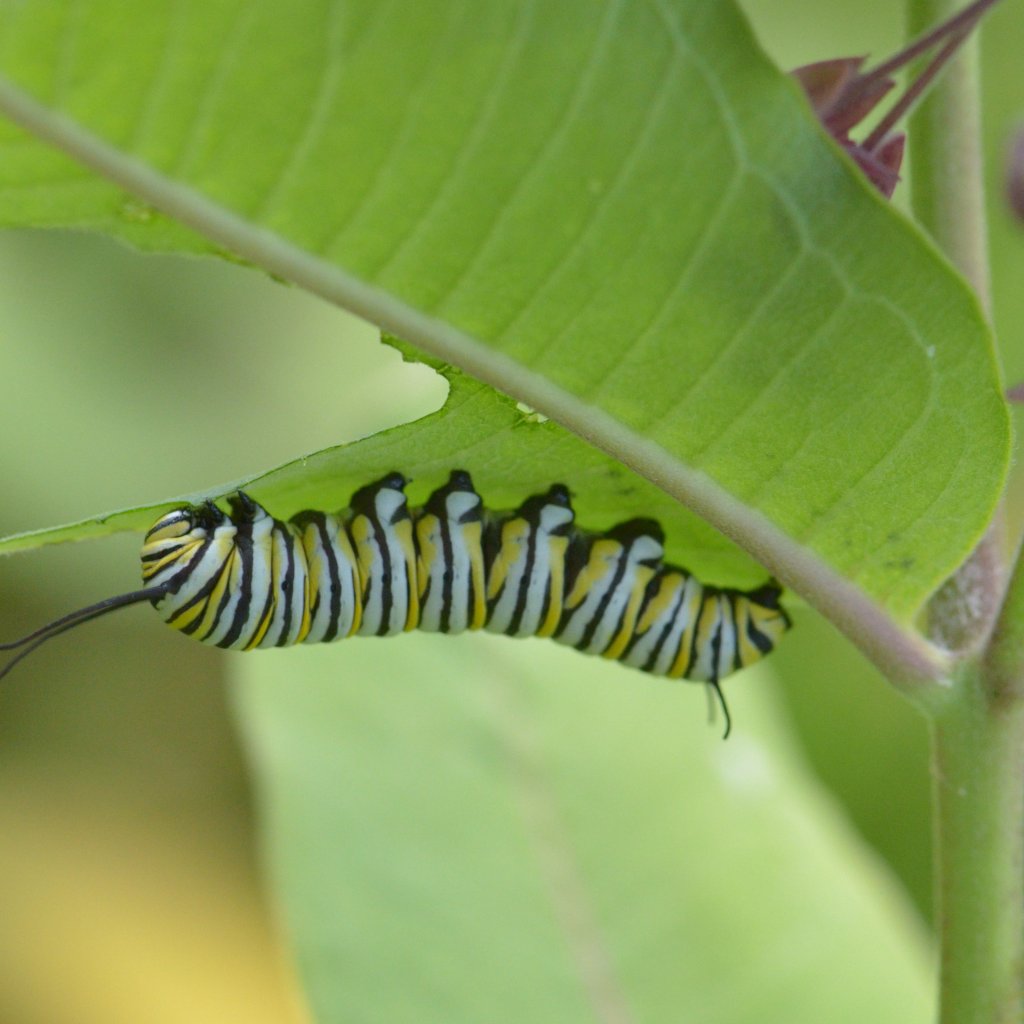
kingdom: Animalia
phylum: Arthropoda
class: Insecta
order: Lepidoptera
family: Nymphalidae
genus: Danaus
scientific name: Danaus plexippus
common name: Monarch
